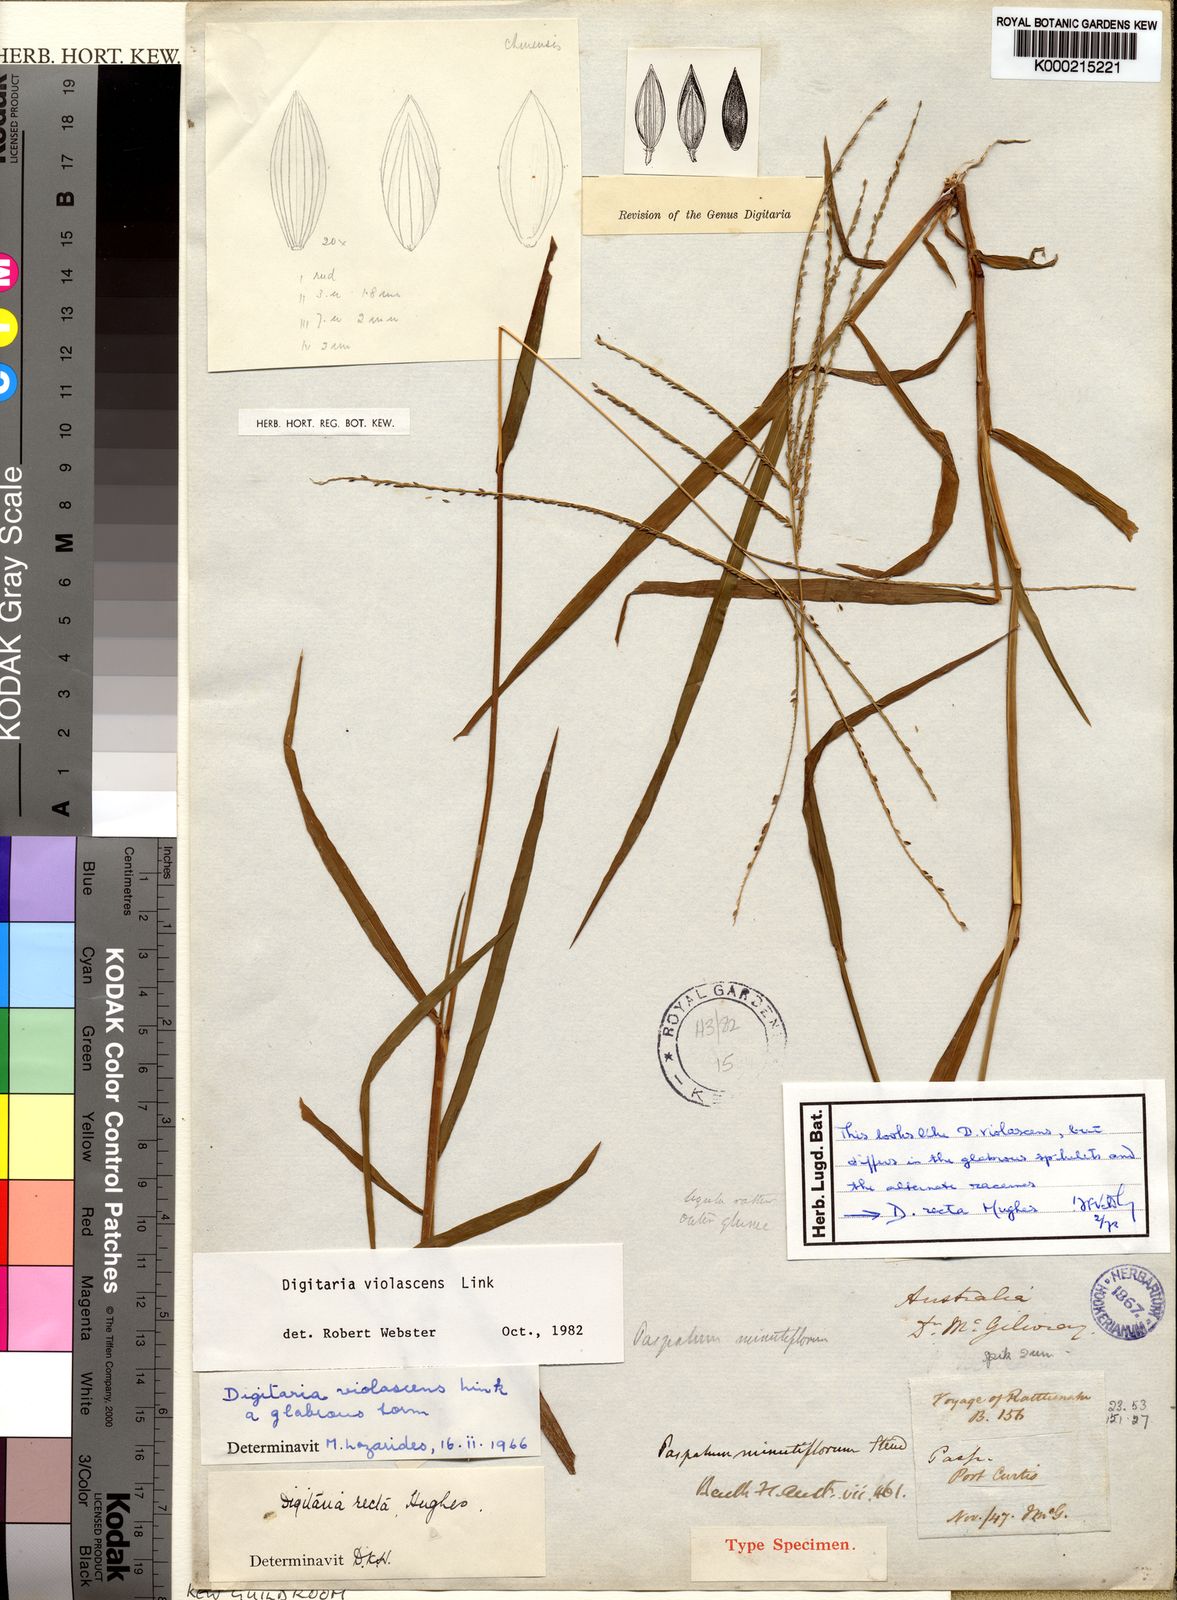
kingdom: Plantae
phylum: Tracheophyta
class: Liliopsida
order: Poales
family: Poaceae
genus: Digitaria
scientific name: Digitaria violascens
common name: Violet crabgrass
